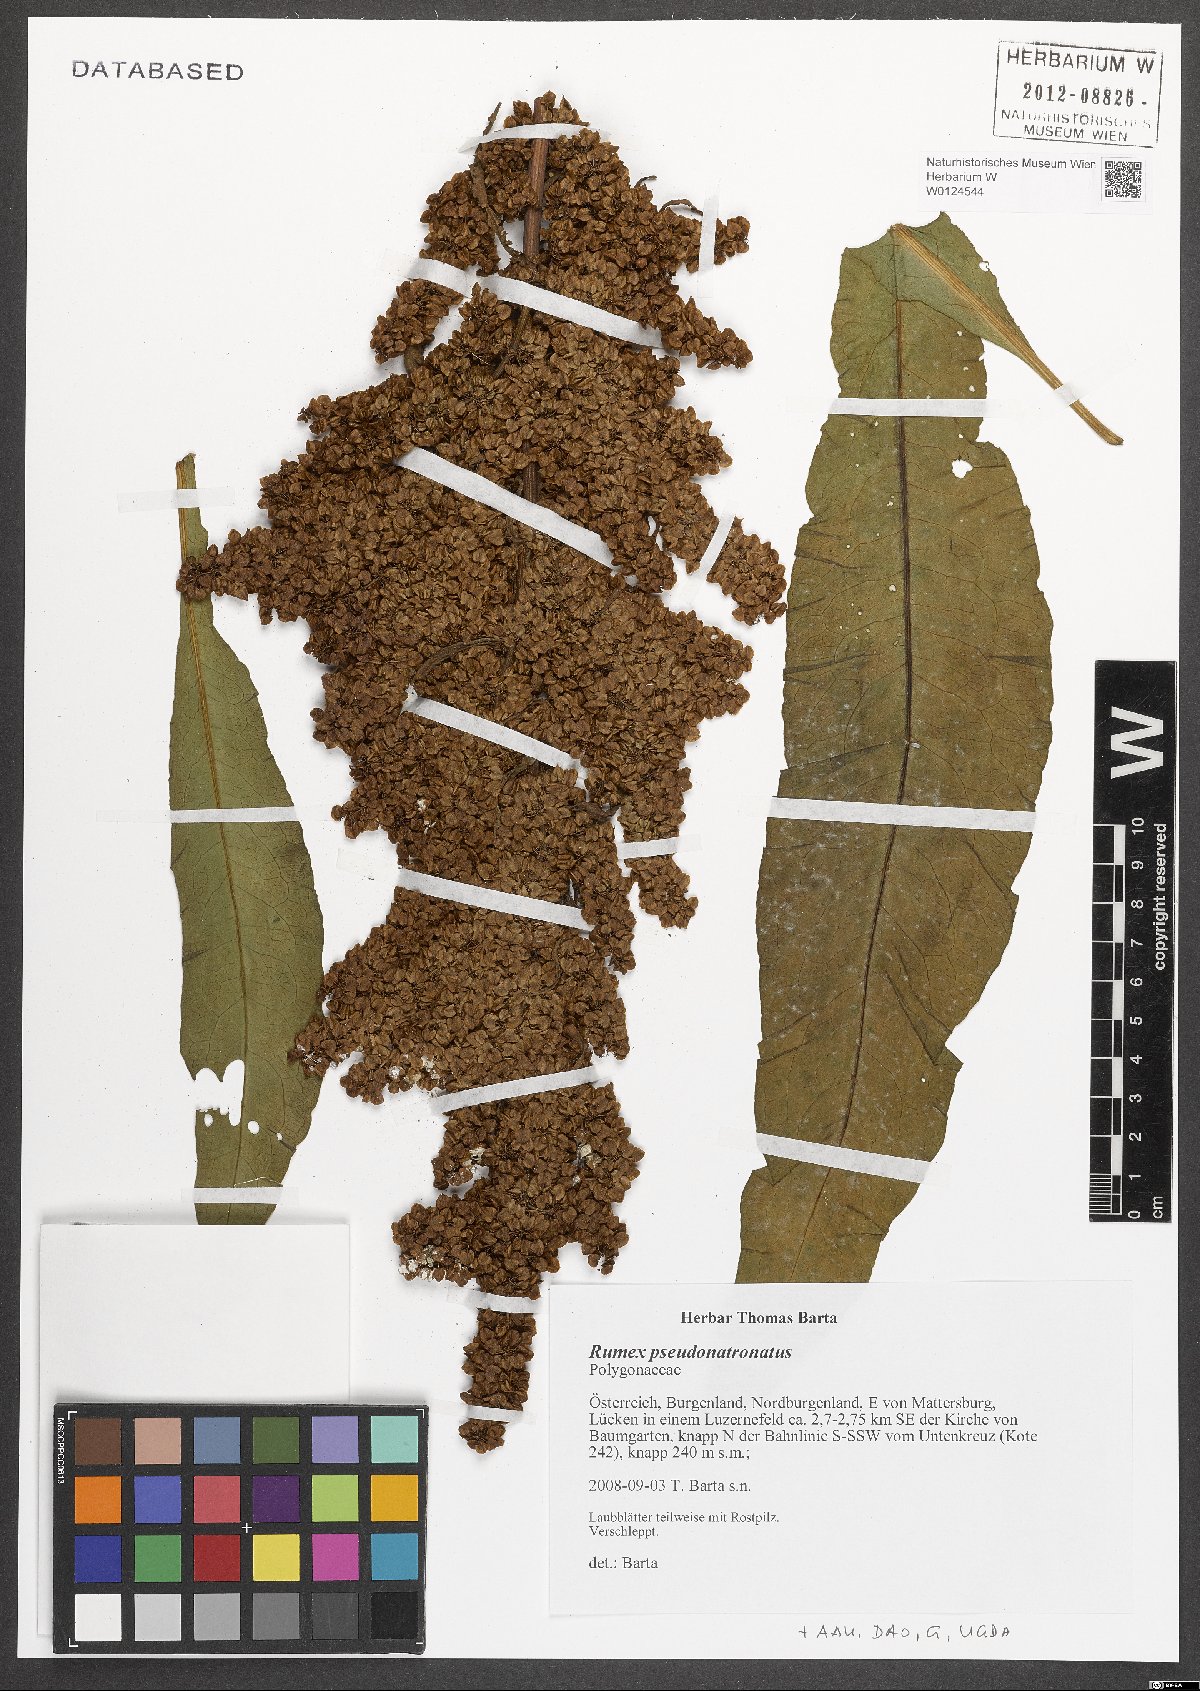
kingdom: Plantae
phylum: Tracheophyta
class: Magnoliopsida
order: Caryophyllales
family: Polygonaceae
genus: Rumex
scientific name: Rumex pseudonatronatus
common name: Field dock
